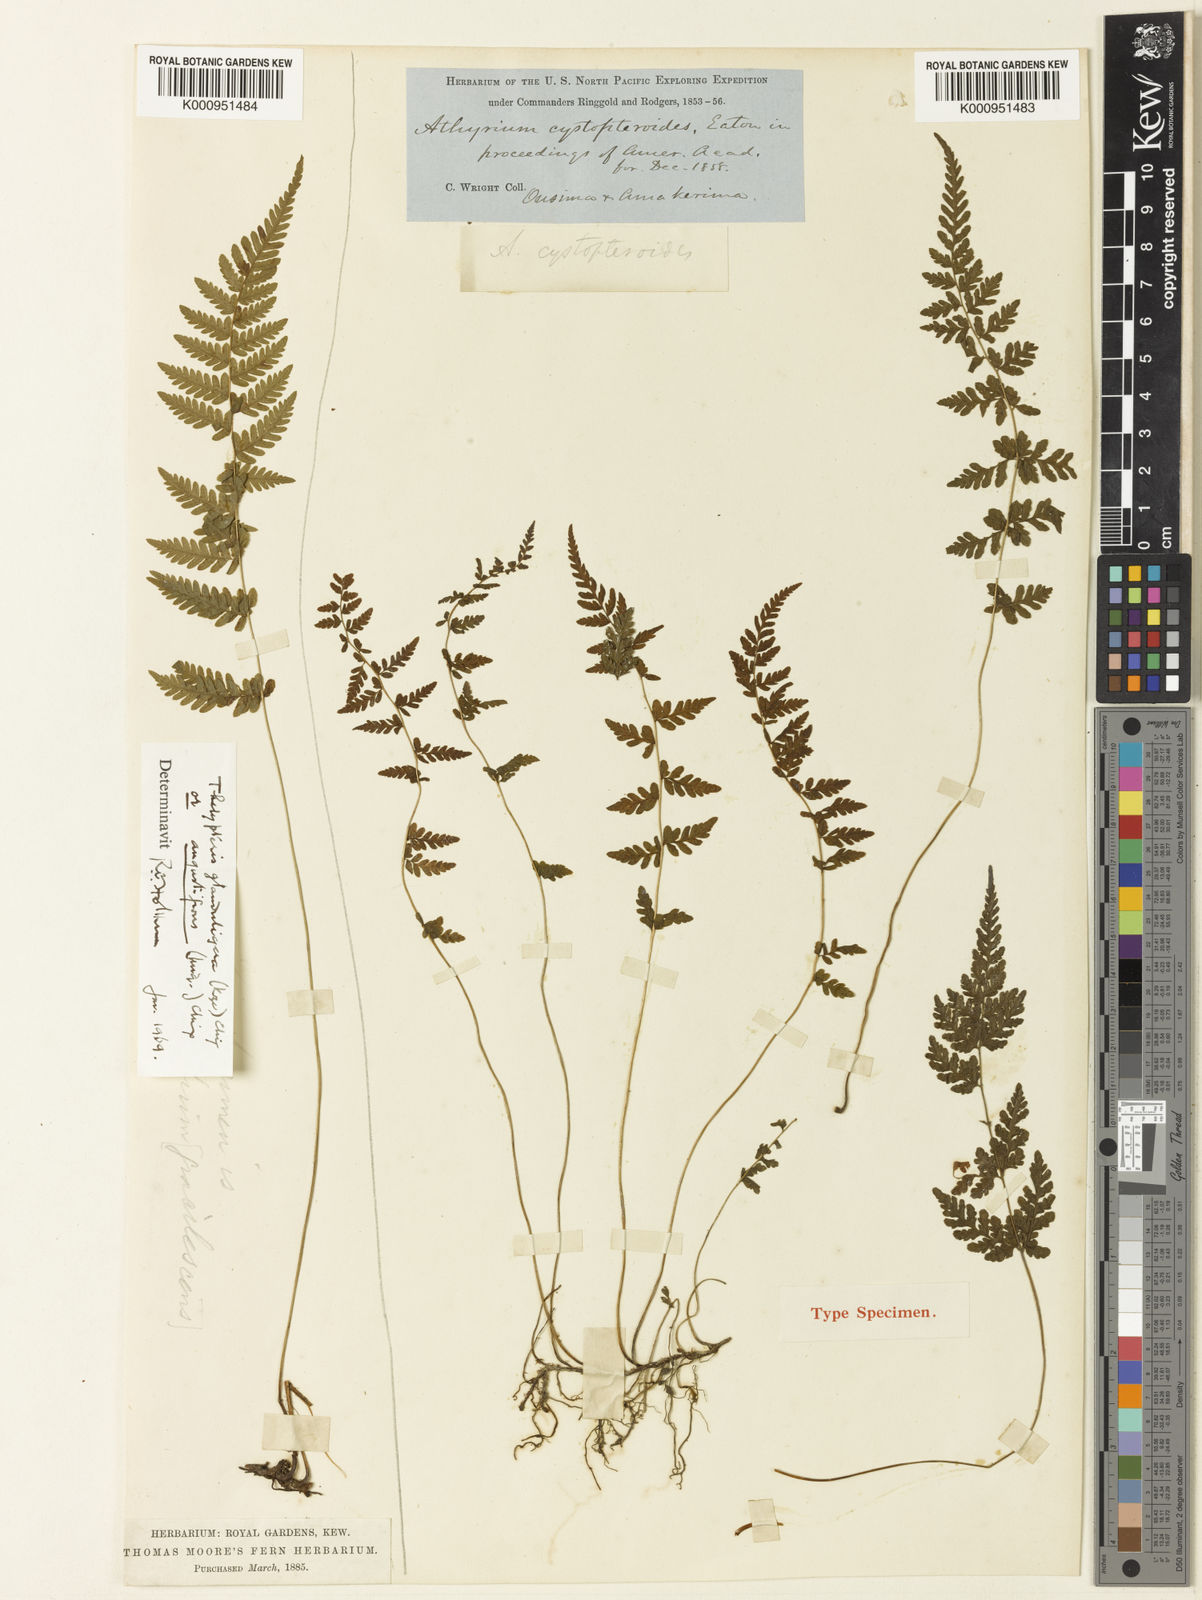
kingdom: Plantae
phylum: Tracheophyta
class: Polypodiopsida
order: Polypodiales
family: Thelypteridaceae
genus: Amauropelta
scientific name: Amauropelta cystopteroides
